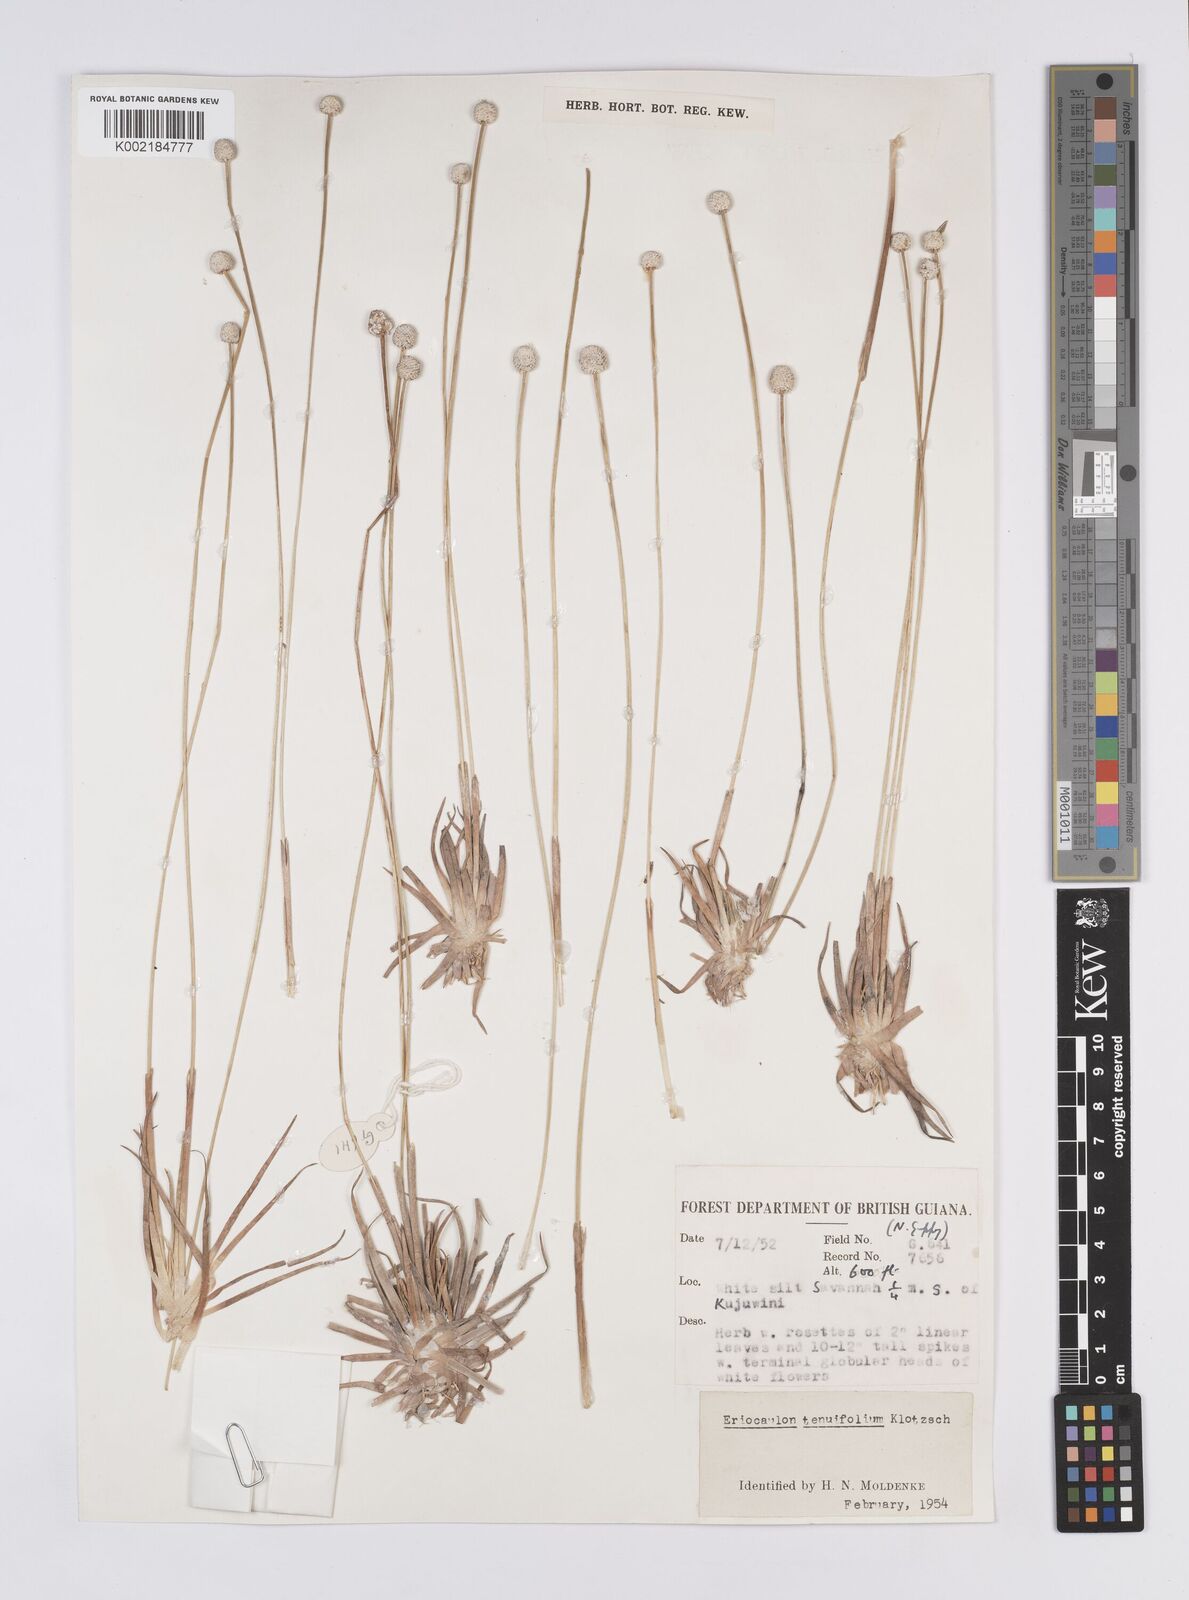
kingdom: Plantae
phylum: Tracheophyta
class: Liliopsida
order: Poales
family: Eriocaulaceae
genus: Eriocaulon
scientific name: Eriocaulon tenuifolium
